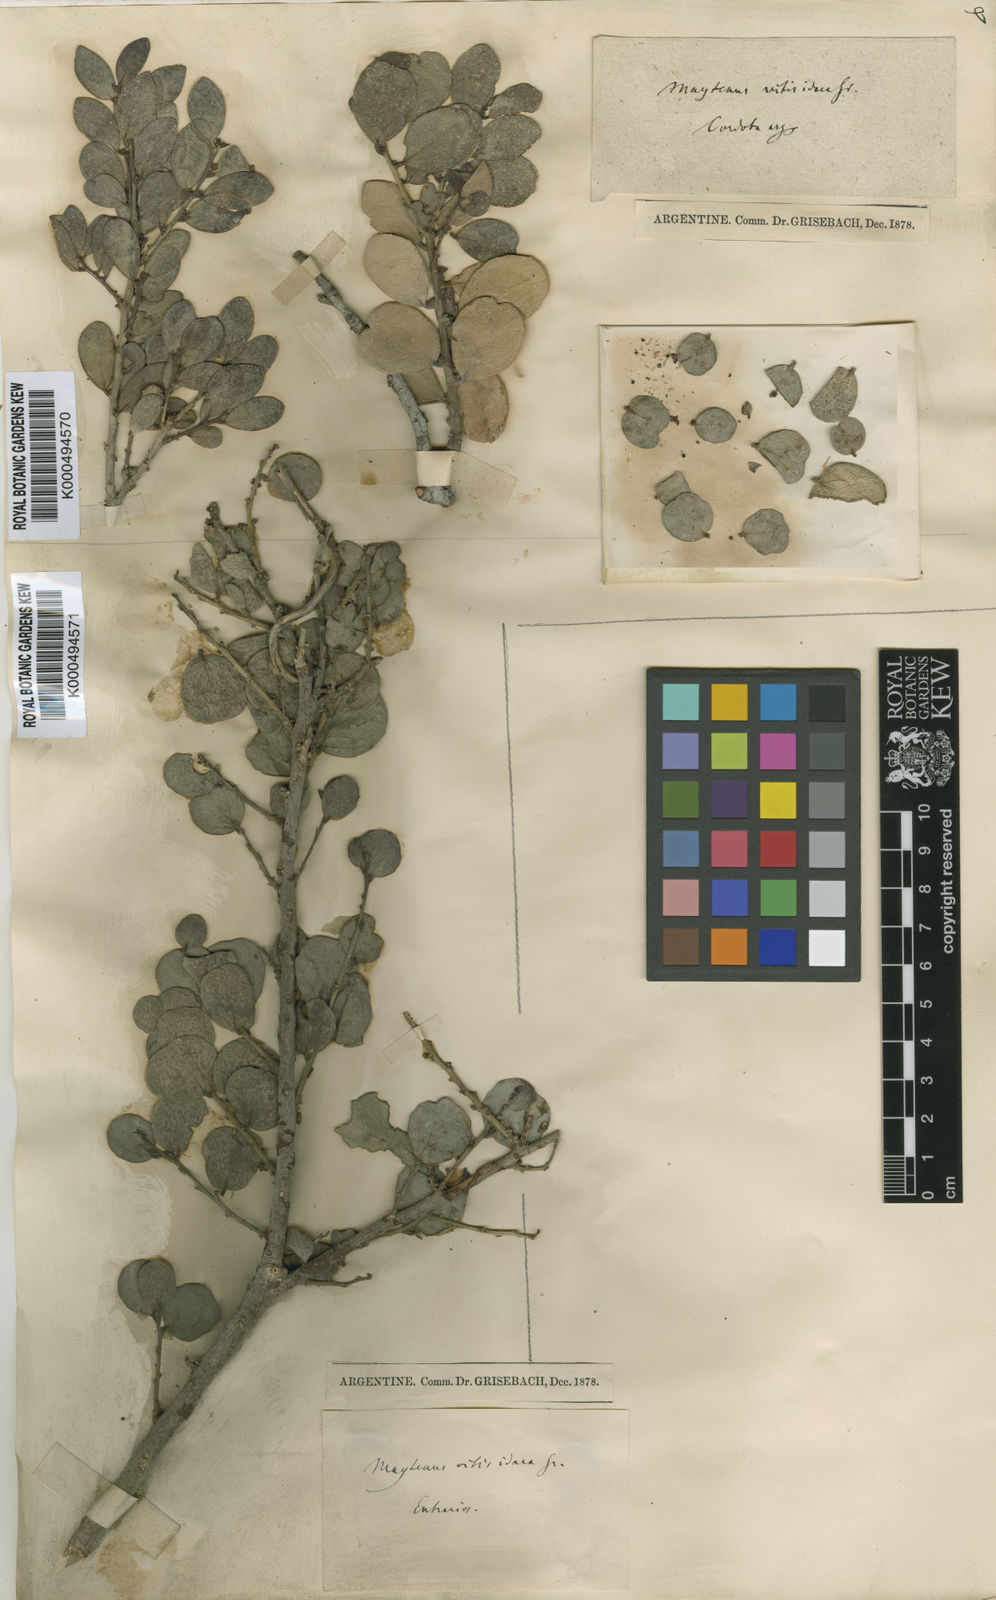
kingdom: Plantae
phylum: Tracheophyta
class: Magnoliopsida
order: Celastrales
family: Celastraceae
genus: Tricerma
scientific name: Tricerma vitis-idaeum
